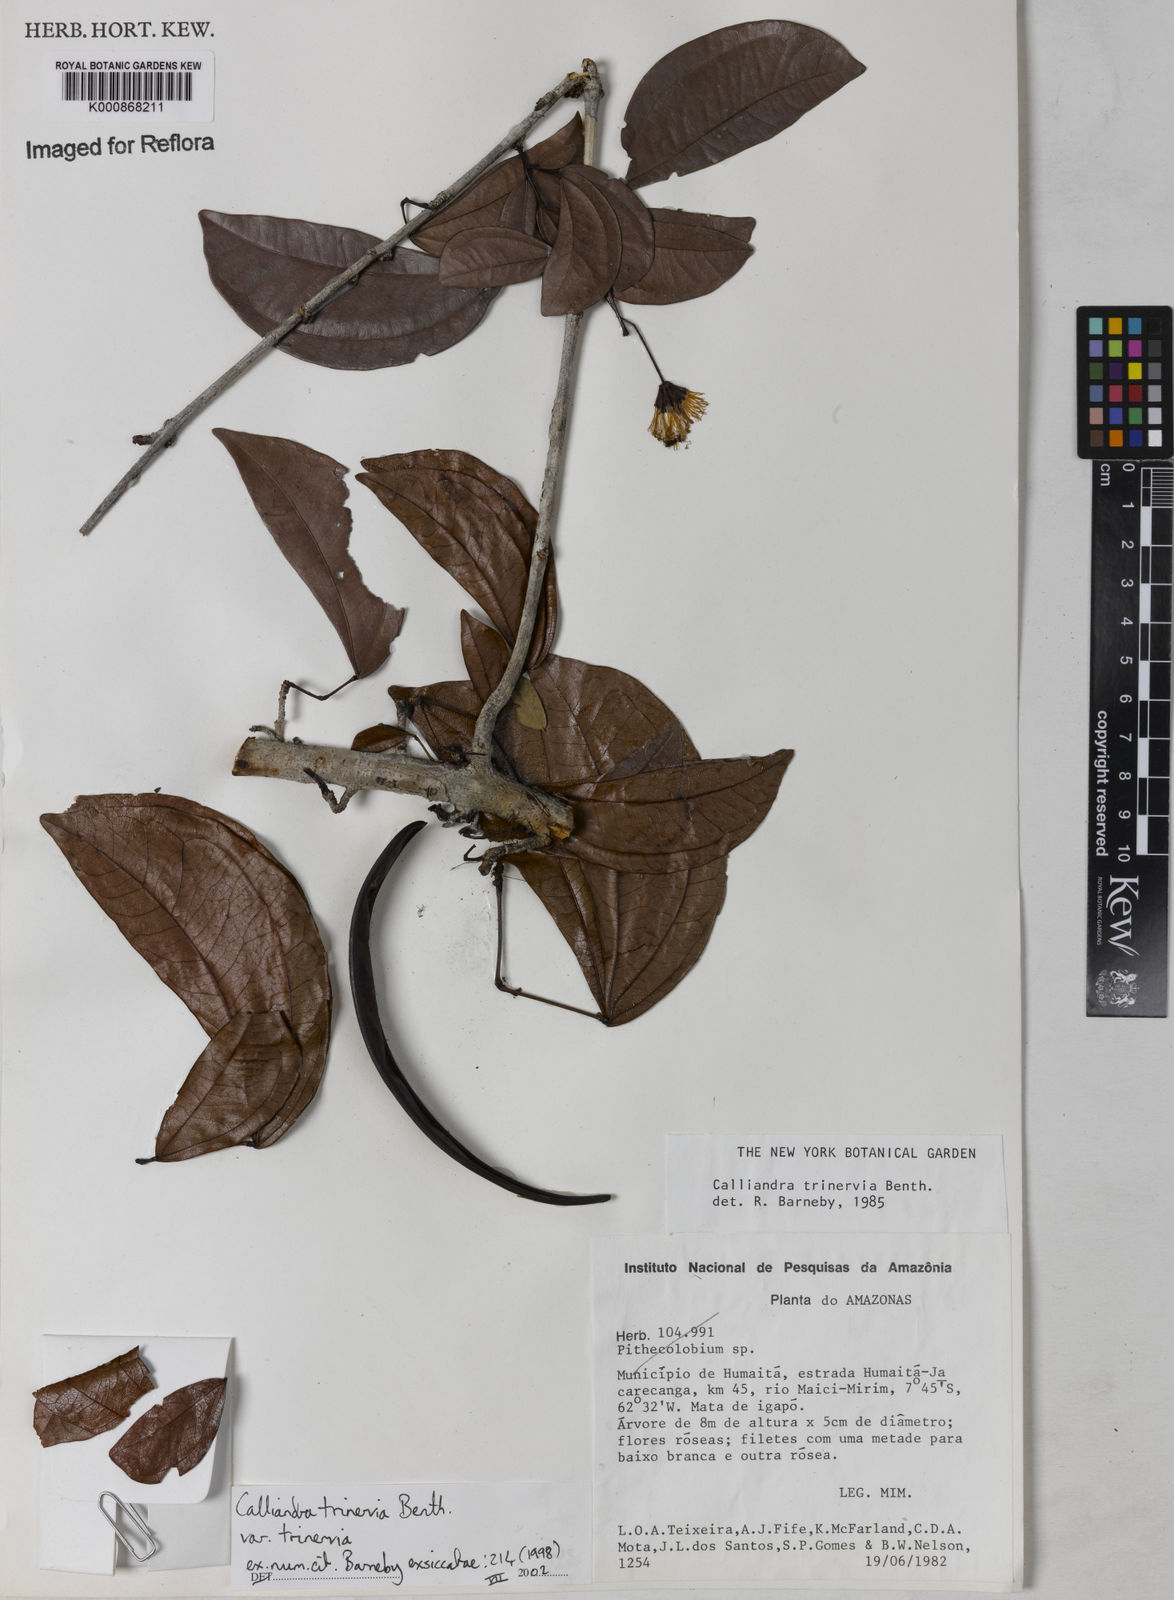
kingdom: Plantae
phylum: Tracheophyta
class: Magnoliopsida
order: Fabales
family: Fabaceae
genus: Calliandra
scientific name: Calliandra trinervia
